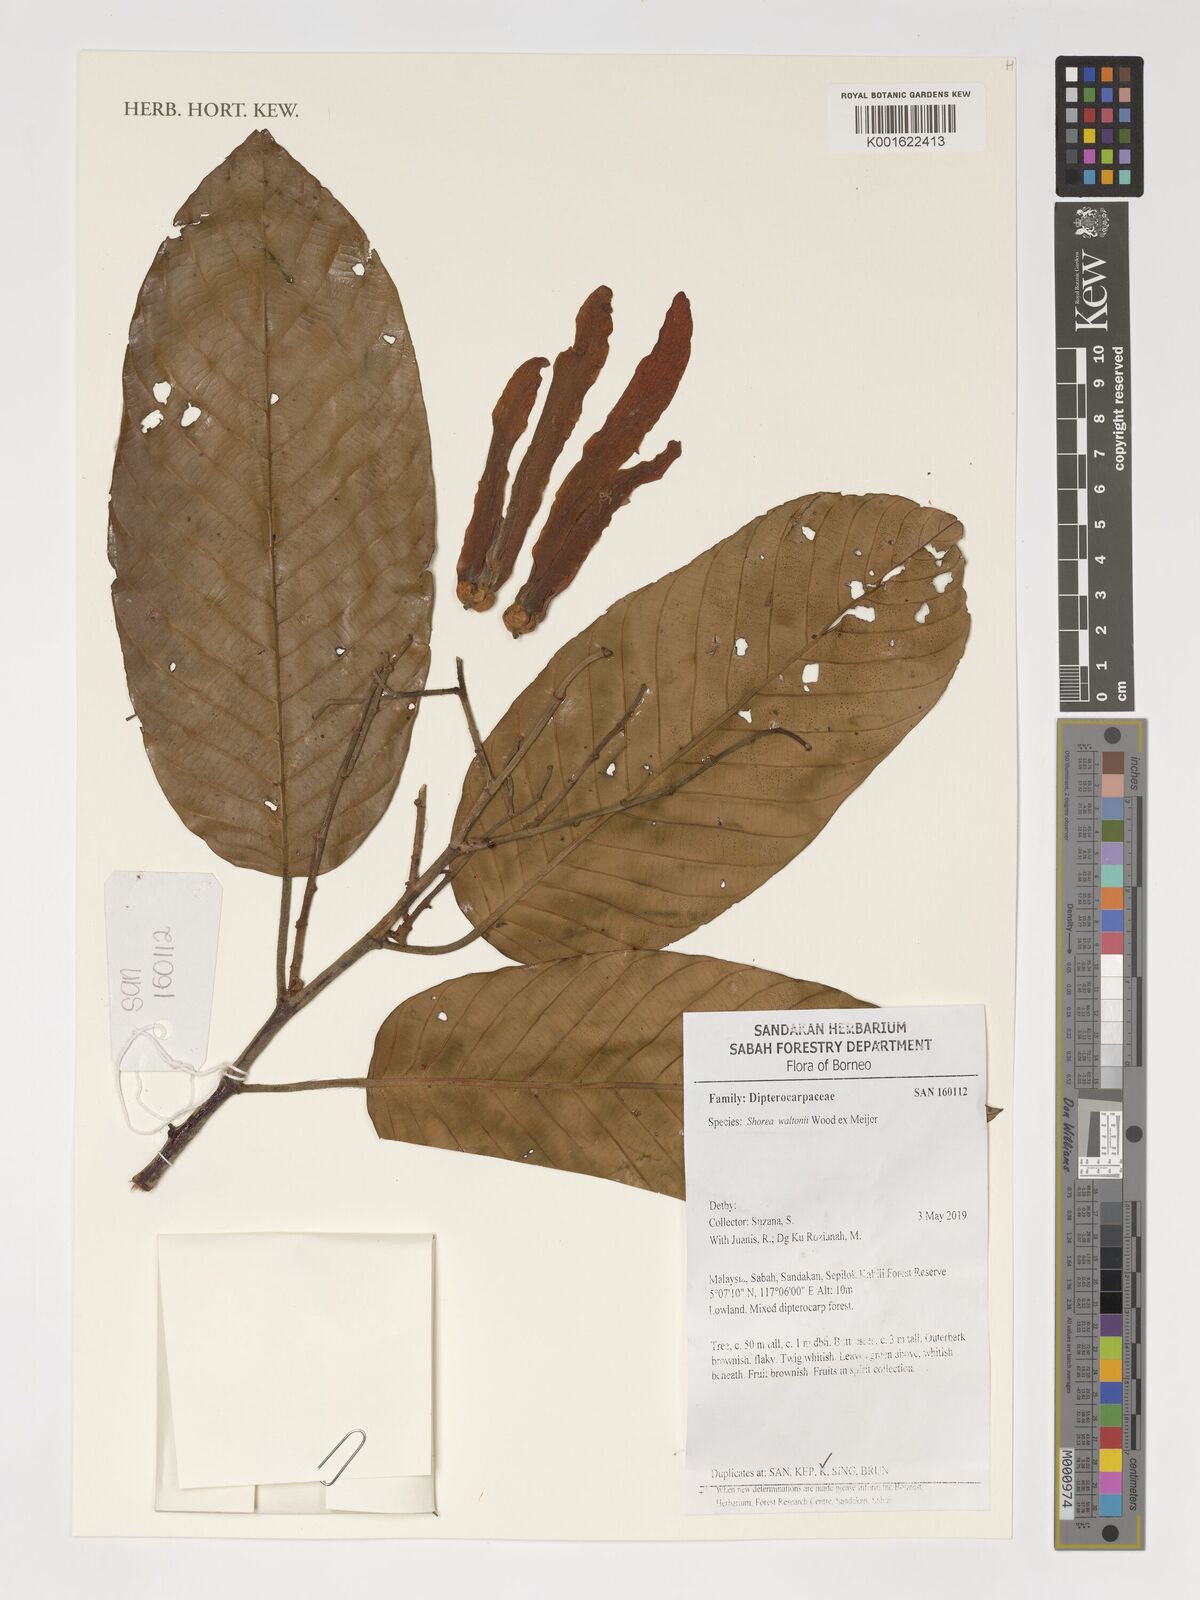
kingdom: Plantae
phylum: Tracheophyta
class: Magnoliopsida
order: Malvales
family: Dipterocarpaceae
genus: Shorea
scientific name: Shorea waltoni
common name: Red meranti
